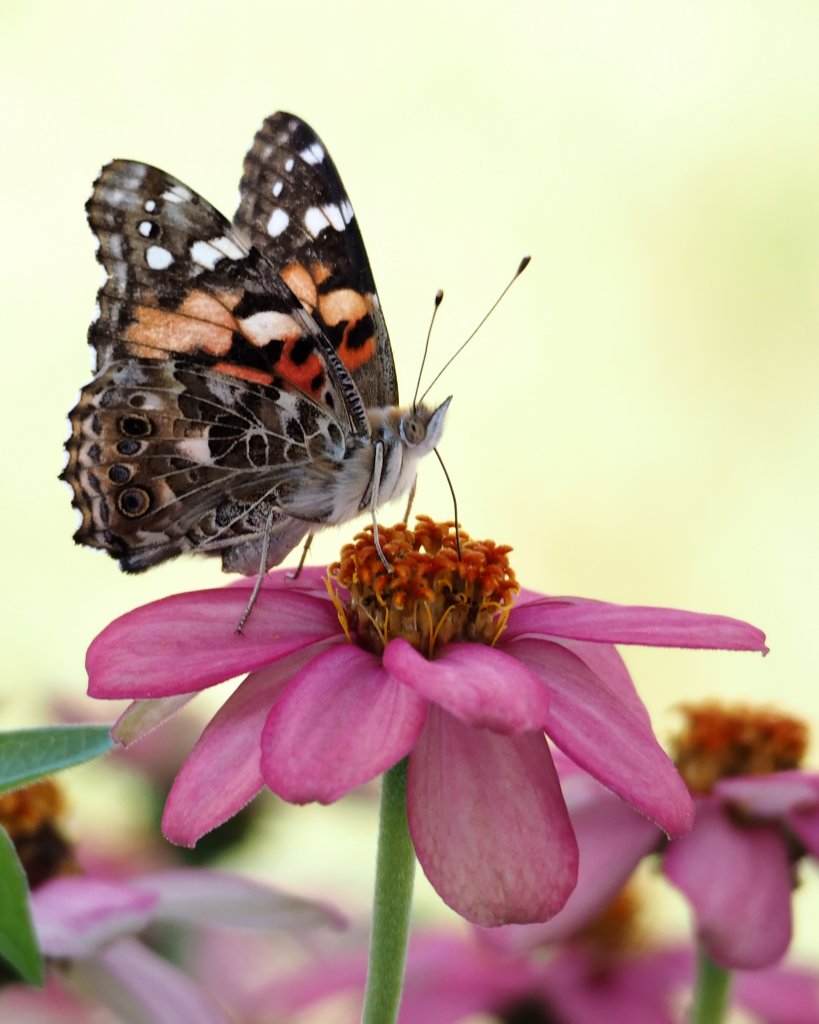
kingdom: Animalia
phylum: Arthropoda
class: Insecta
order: Lepidoptera
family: Nymphalidae
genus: Vanessa
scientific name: Vanessa cardui
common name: Painted Lady
